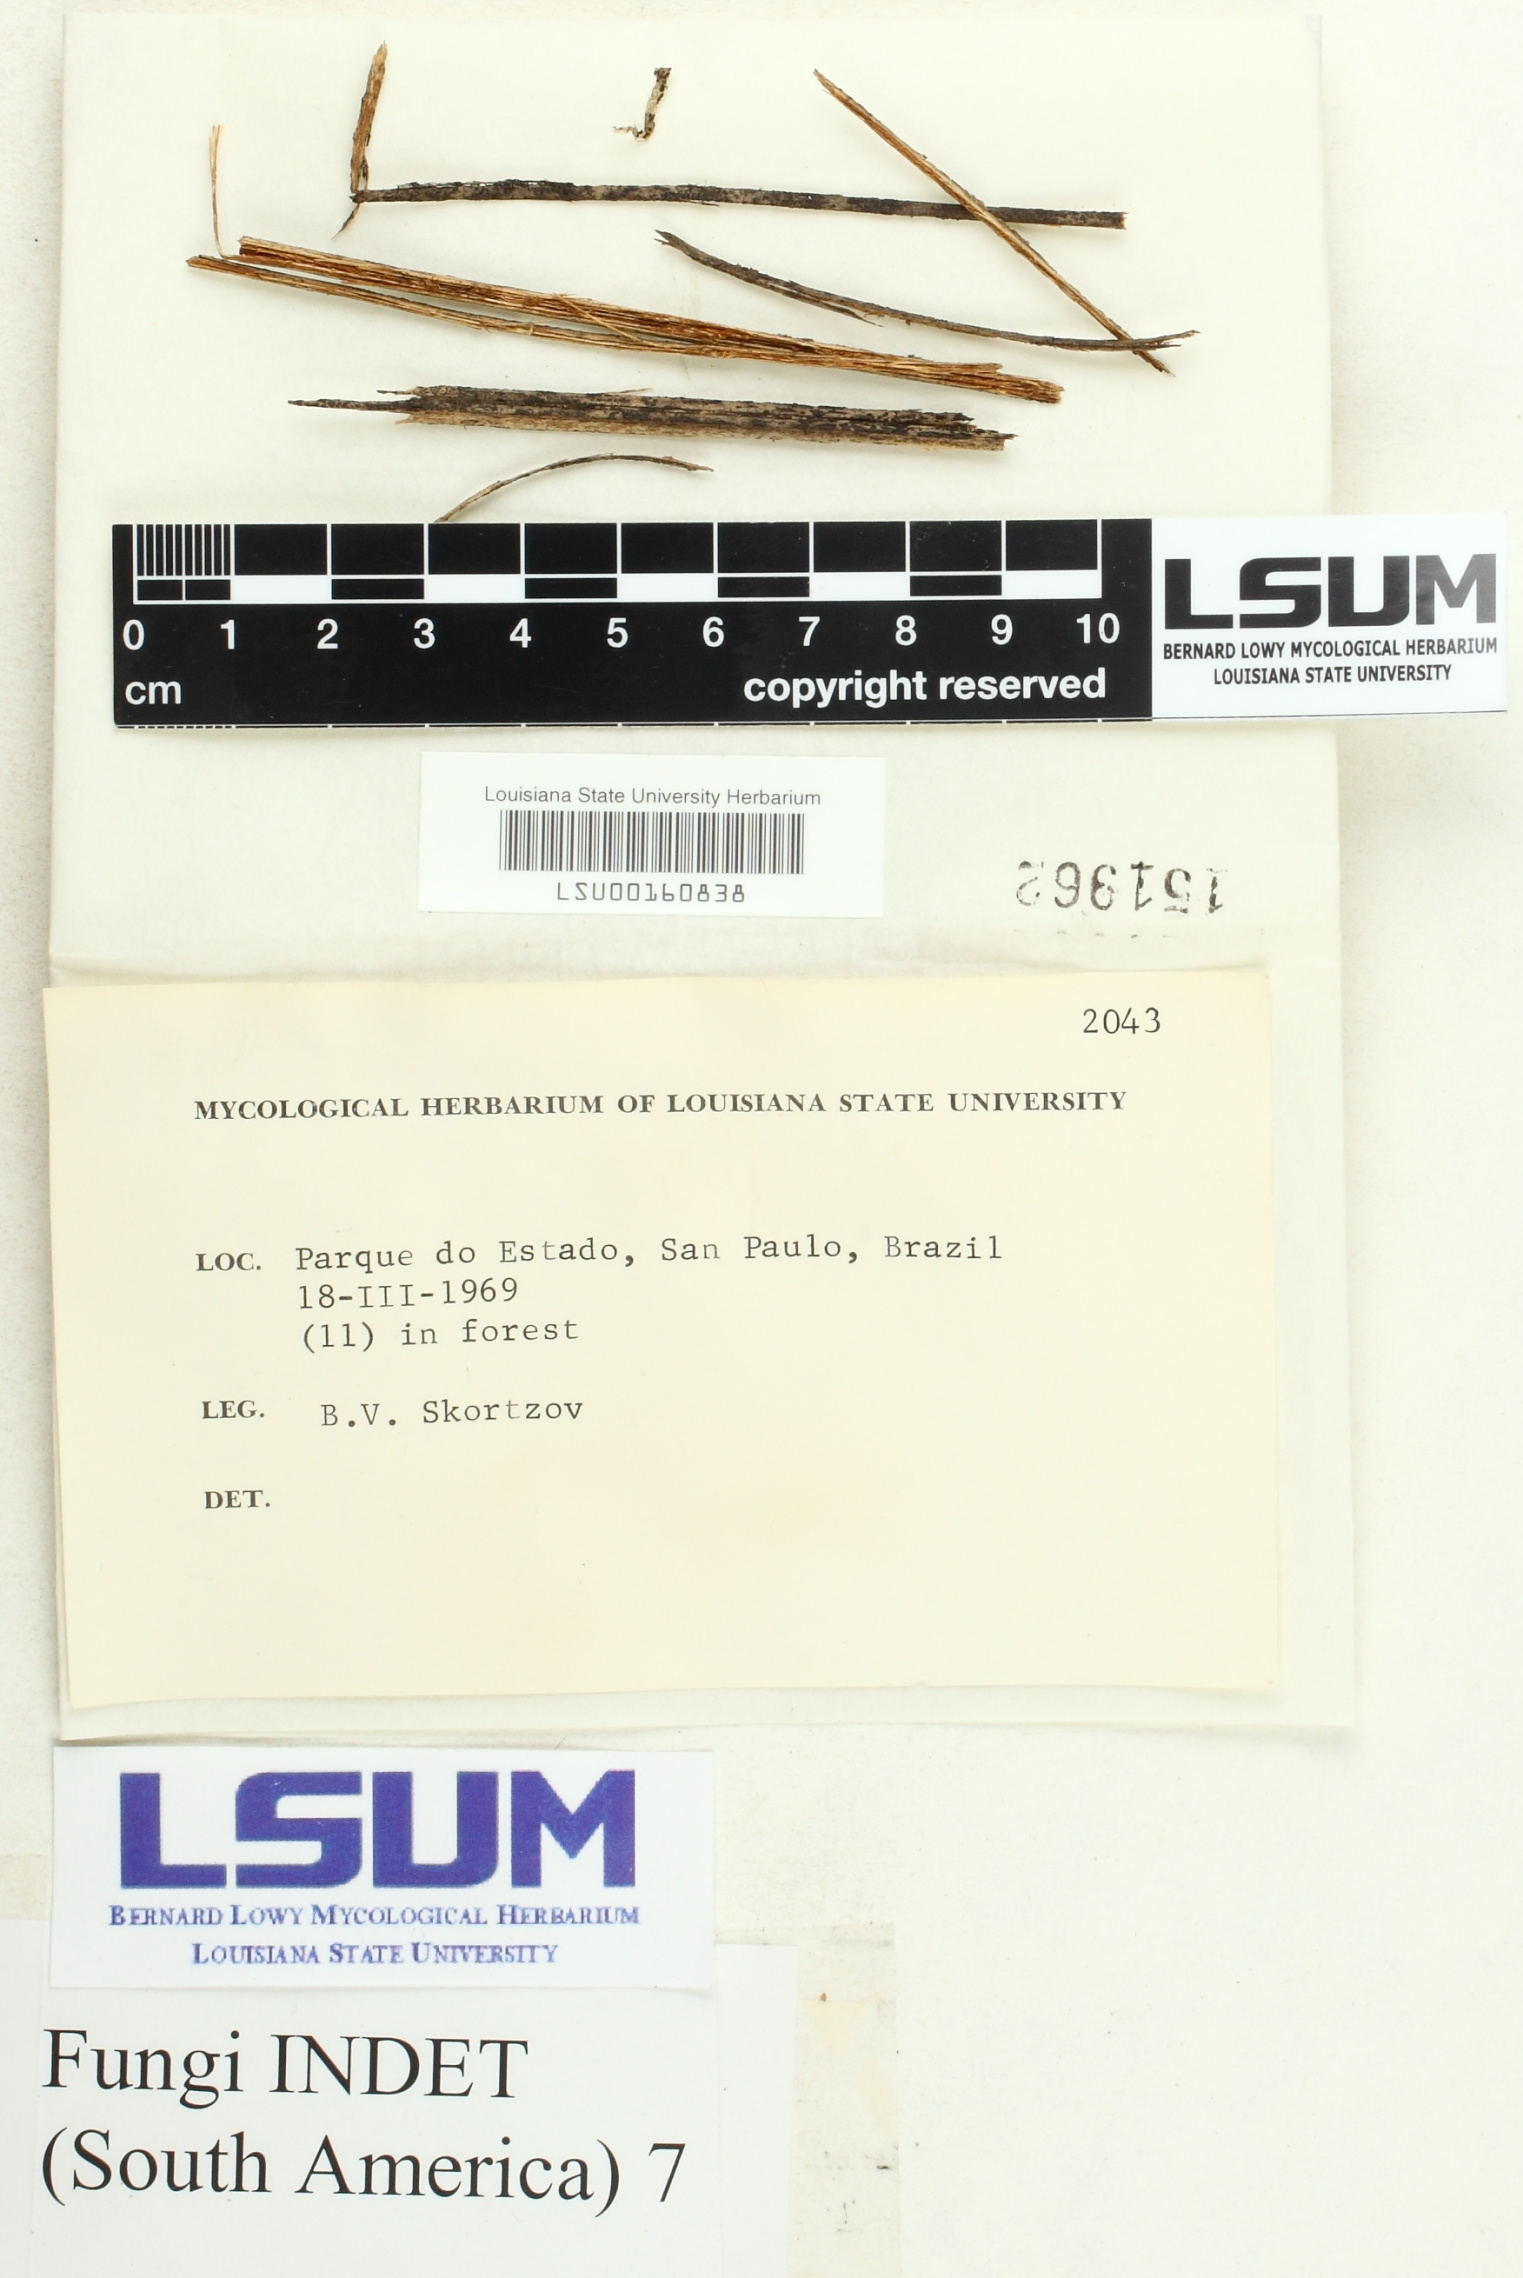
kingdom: Fungi
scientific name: Fungi
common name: Fungi
